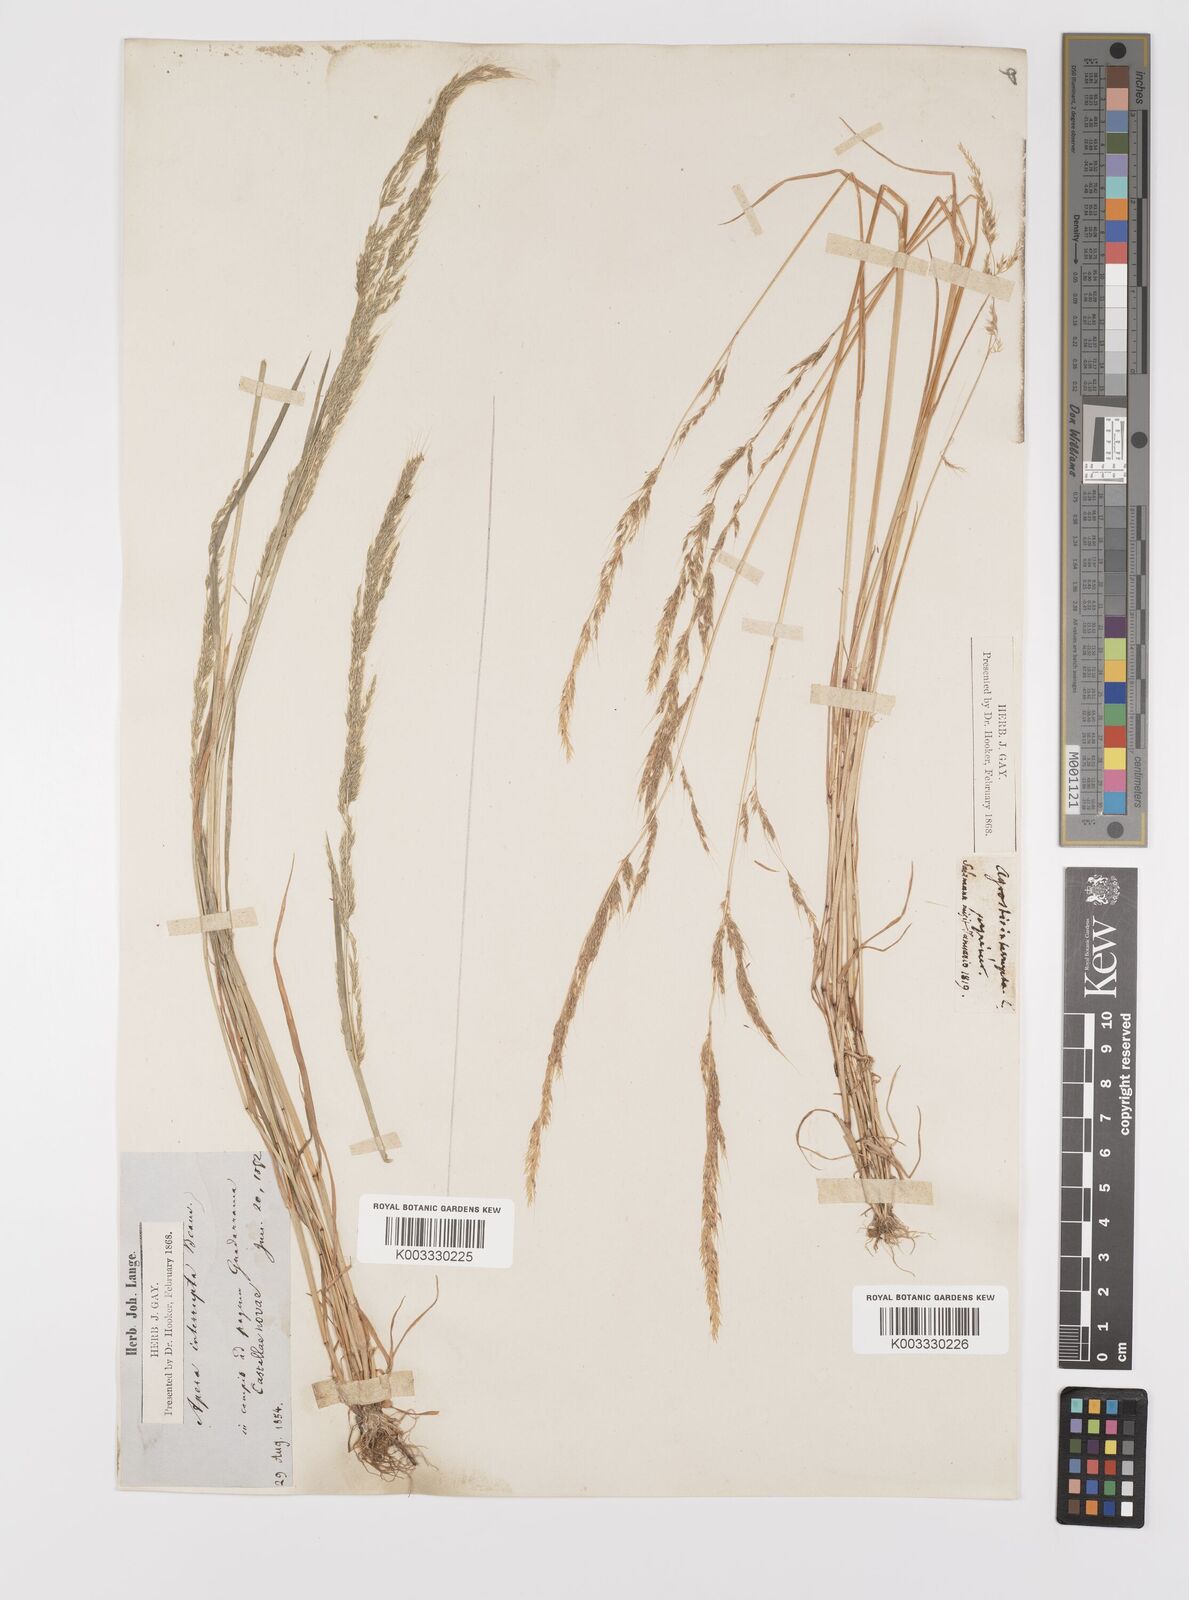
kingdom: Plantae
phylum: Tracheophyta
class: Liliopsida
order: Poales
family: Poaceae
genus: Apera
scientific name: Apera interrupta
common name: Dense silky-bent
